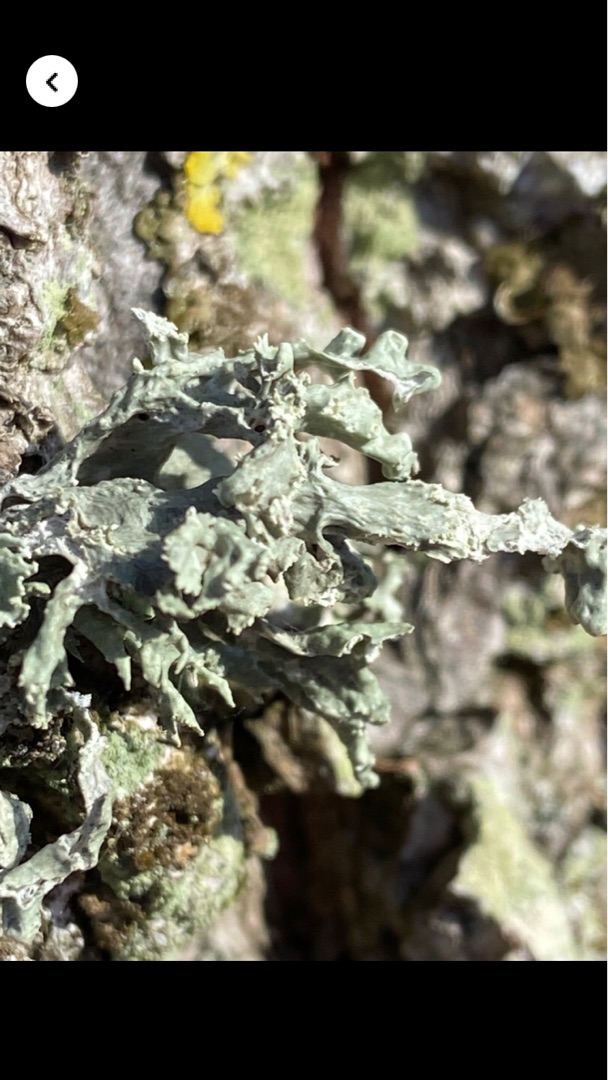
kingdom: Fungi
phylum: Ascomycota
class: Lecanoromycetes
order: Lecanorales
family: Ramalinaceae
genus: Ramalina
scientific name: Ramalina fastigiata
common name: Tue-grenlav
